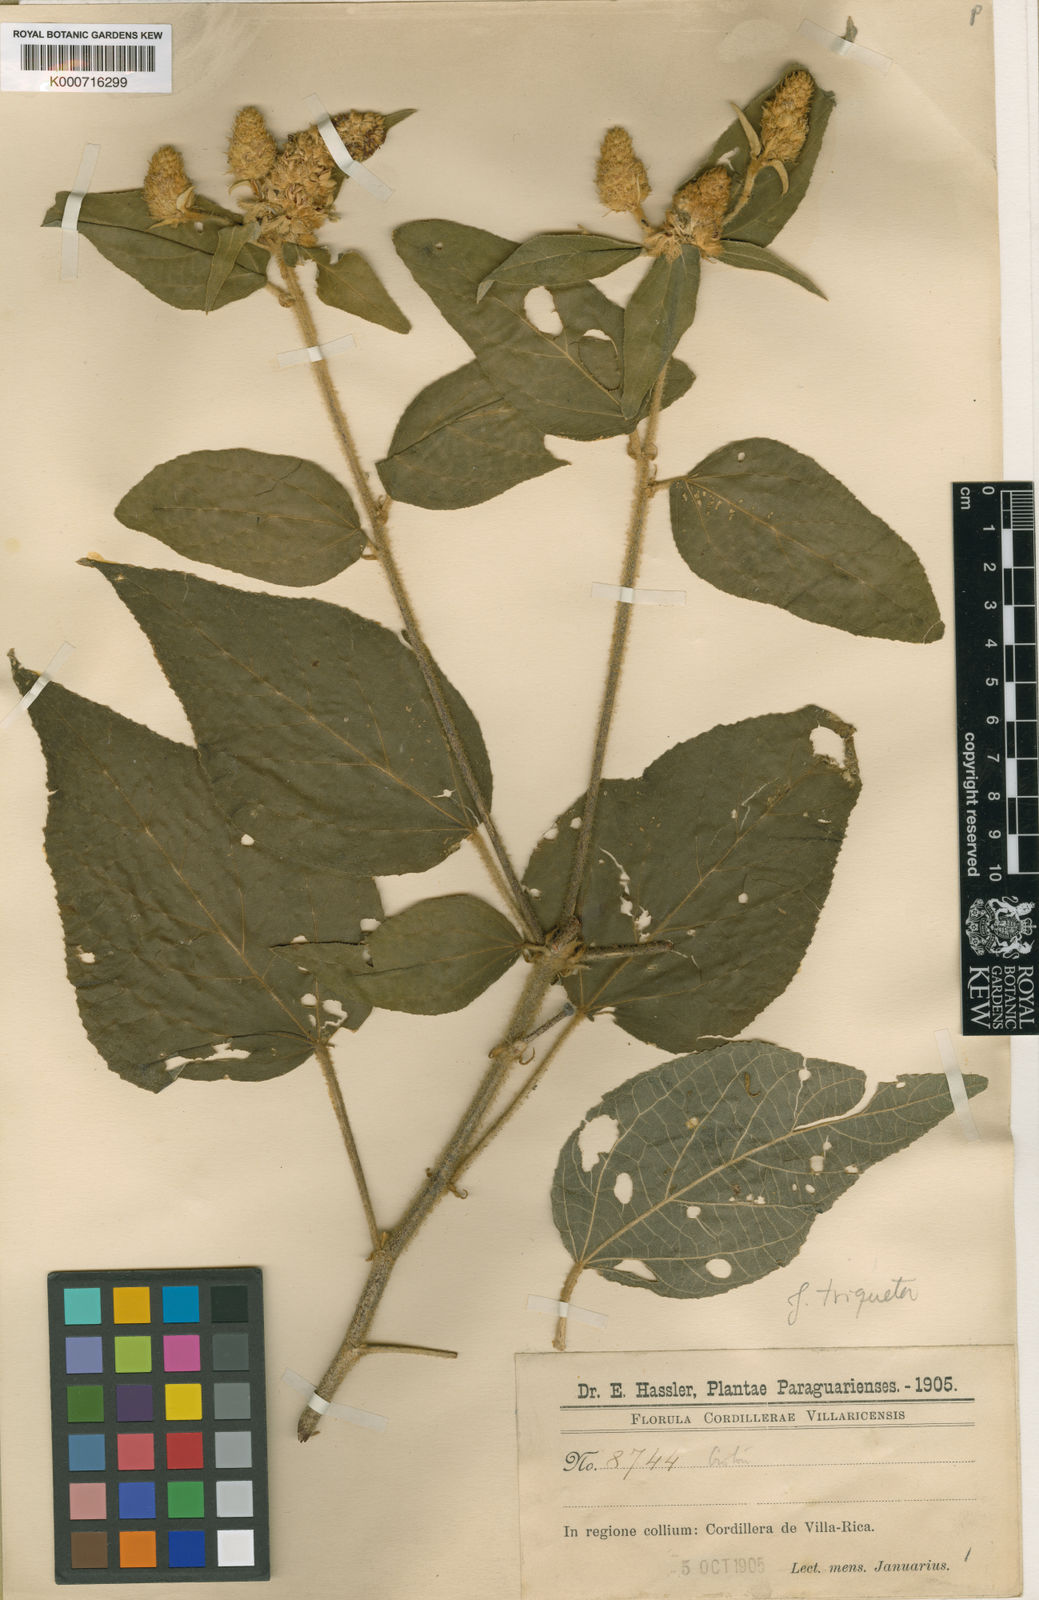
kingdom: Plantae
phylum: Tracheophyta
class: Magnoliopsida
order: Malpighiales
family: Euphorbiaceae
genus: Croton
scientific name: Croton triqueter
